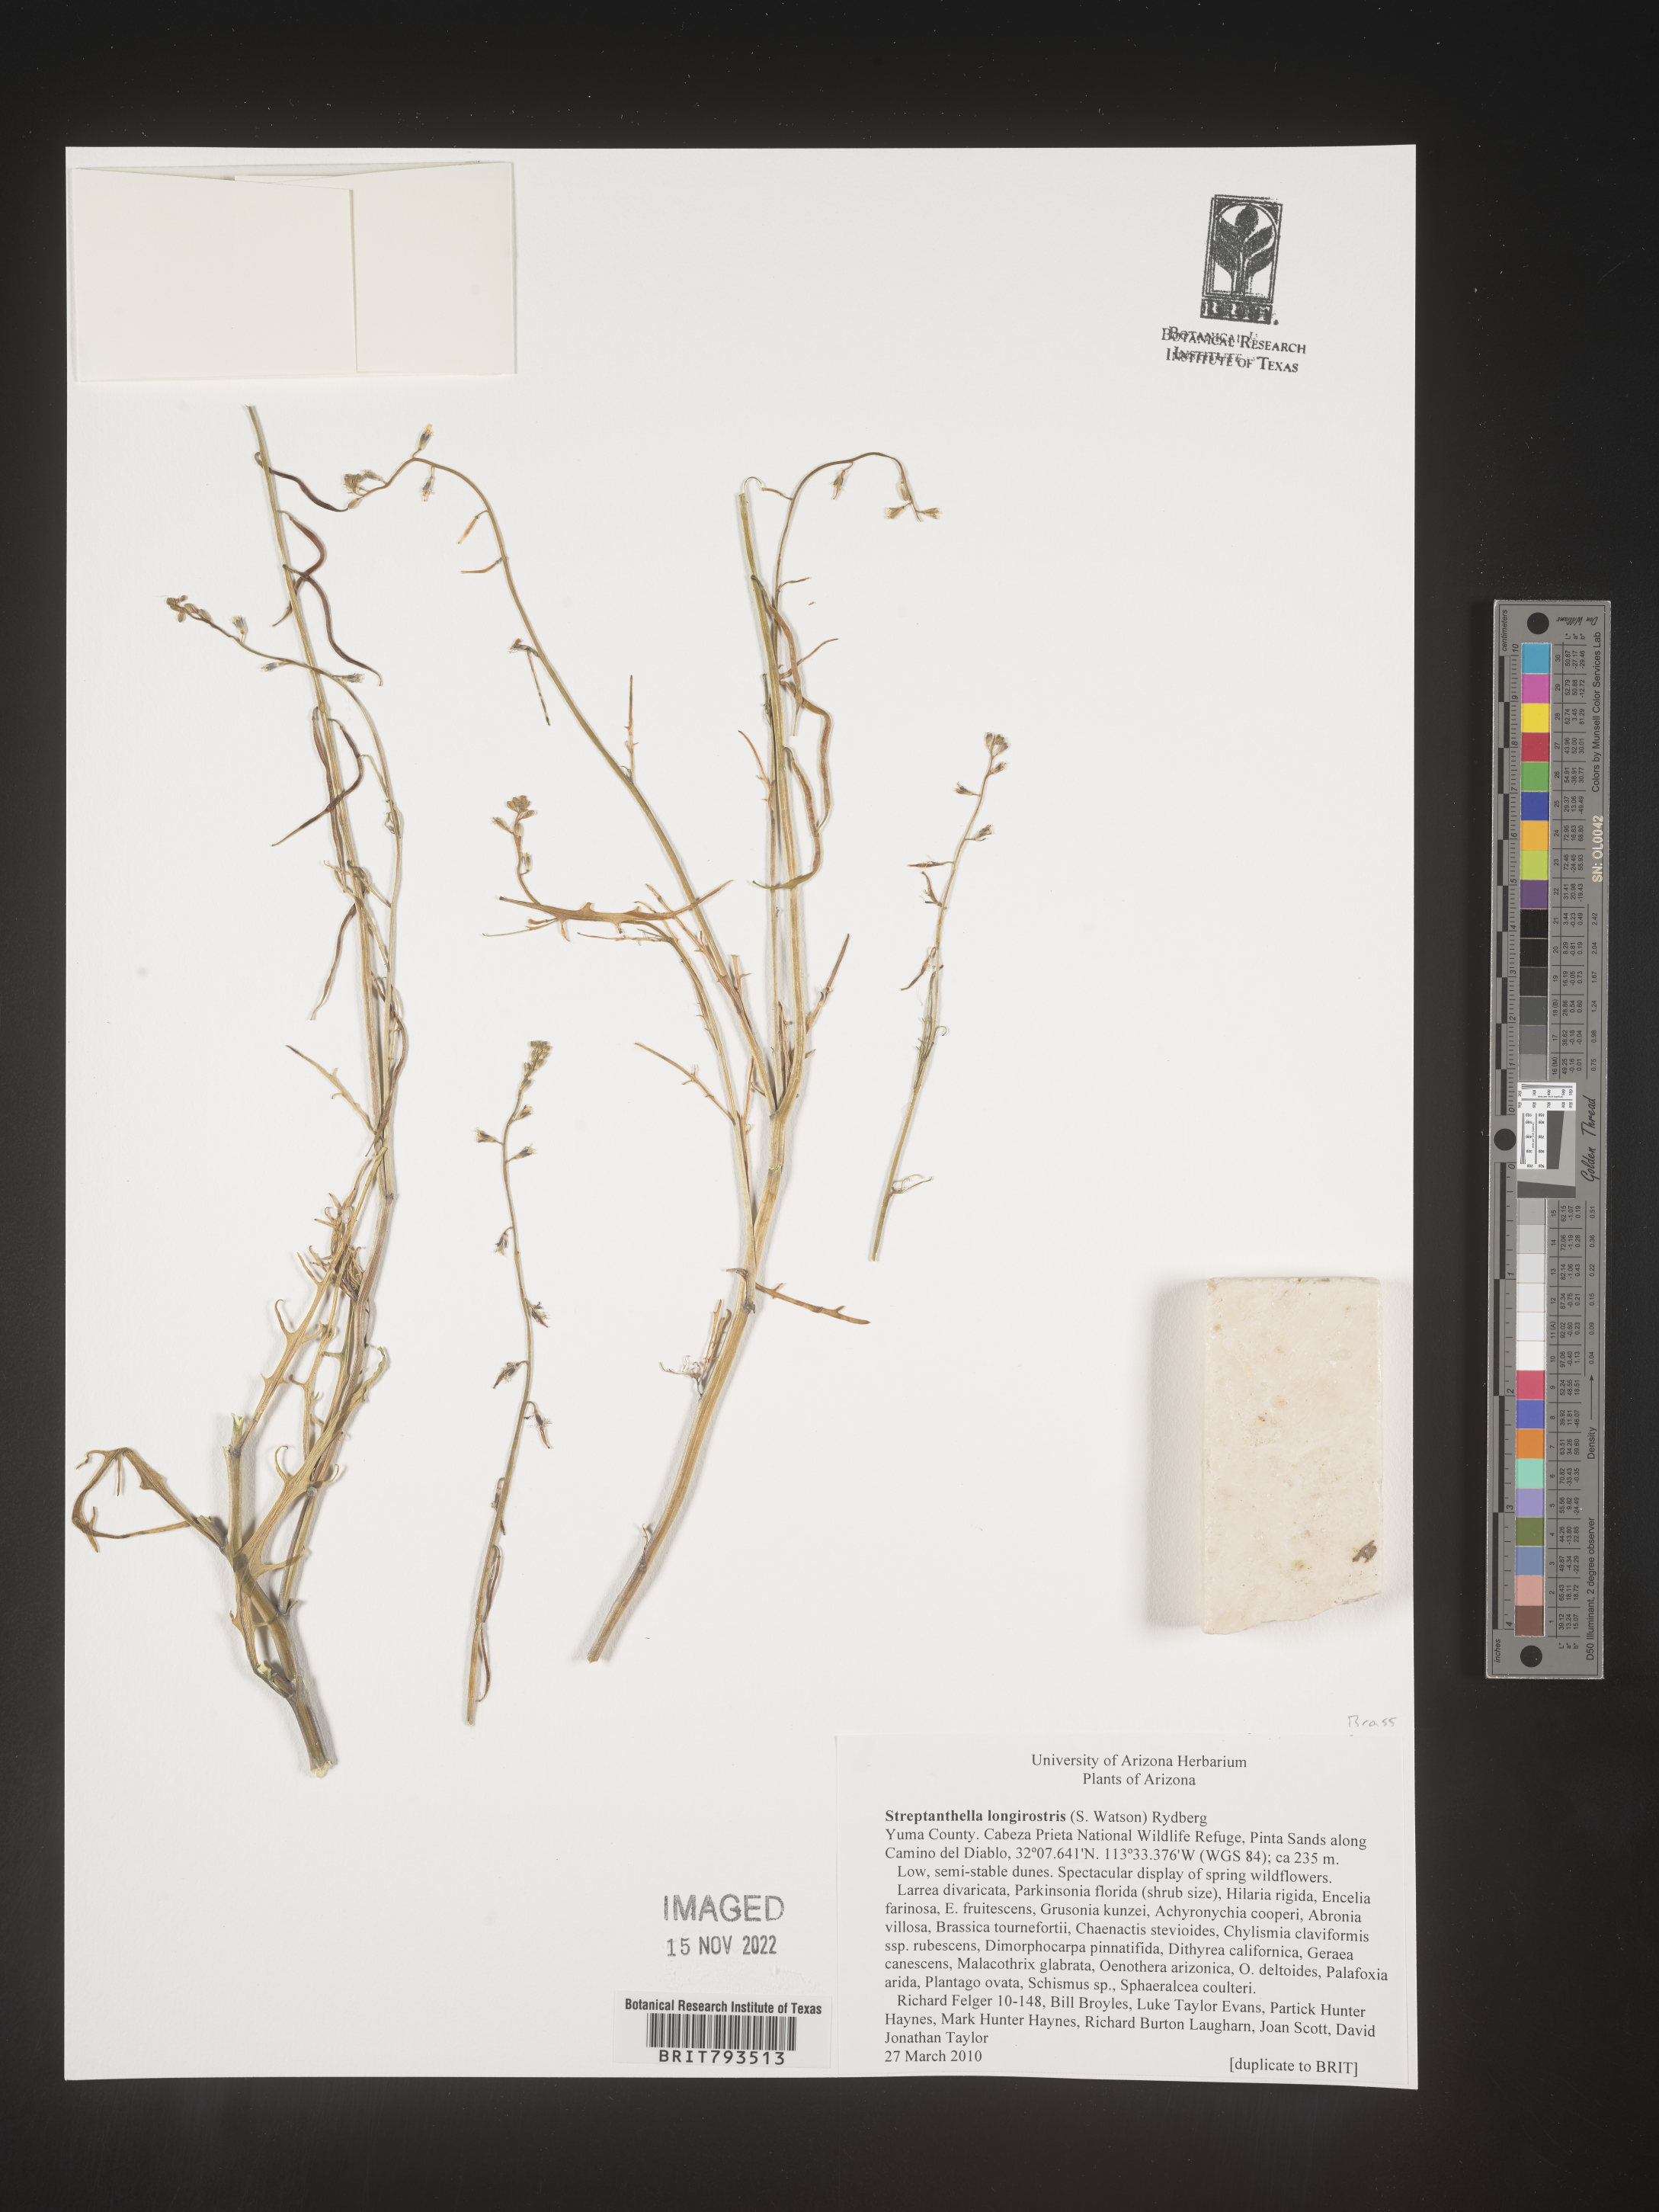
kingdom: Plantae
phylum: Tracheophyta
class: Magnoliopsida
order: Brassicales
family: Brassicaceae
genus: Streptanthus
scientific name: Streptanthus longirostris
